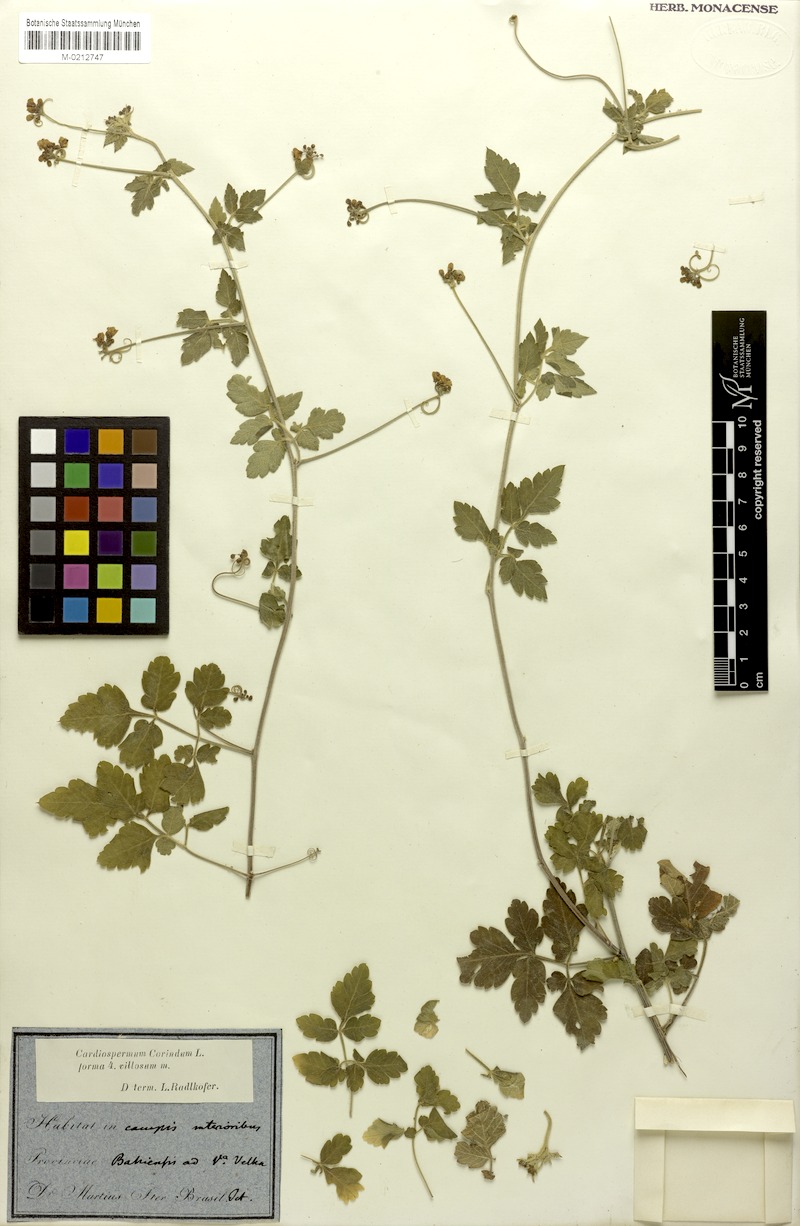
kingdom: Plantae
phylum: Tracheophyta
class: Magnoliopsida
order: Sapindales
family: Sapindaceae
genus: Cardiospermum
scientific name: Cardiospermum corindum
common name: Faux persil
